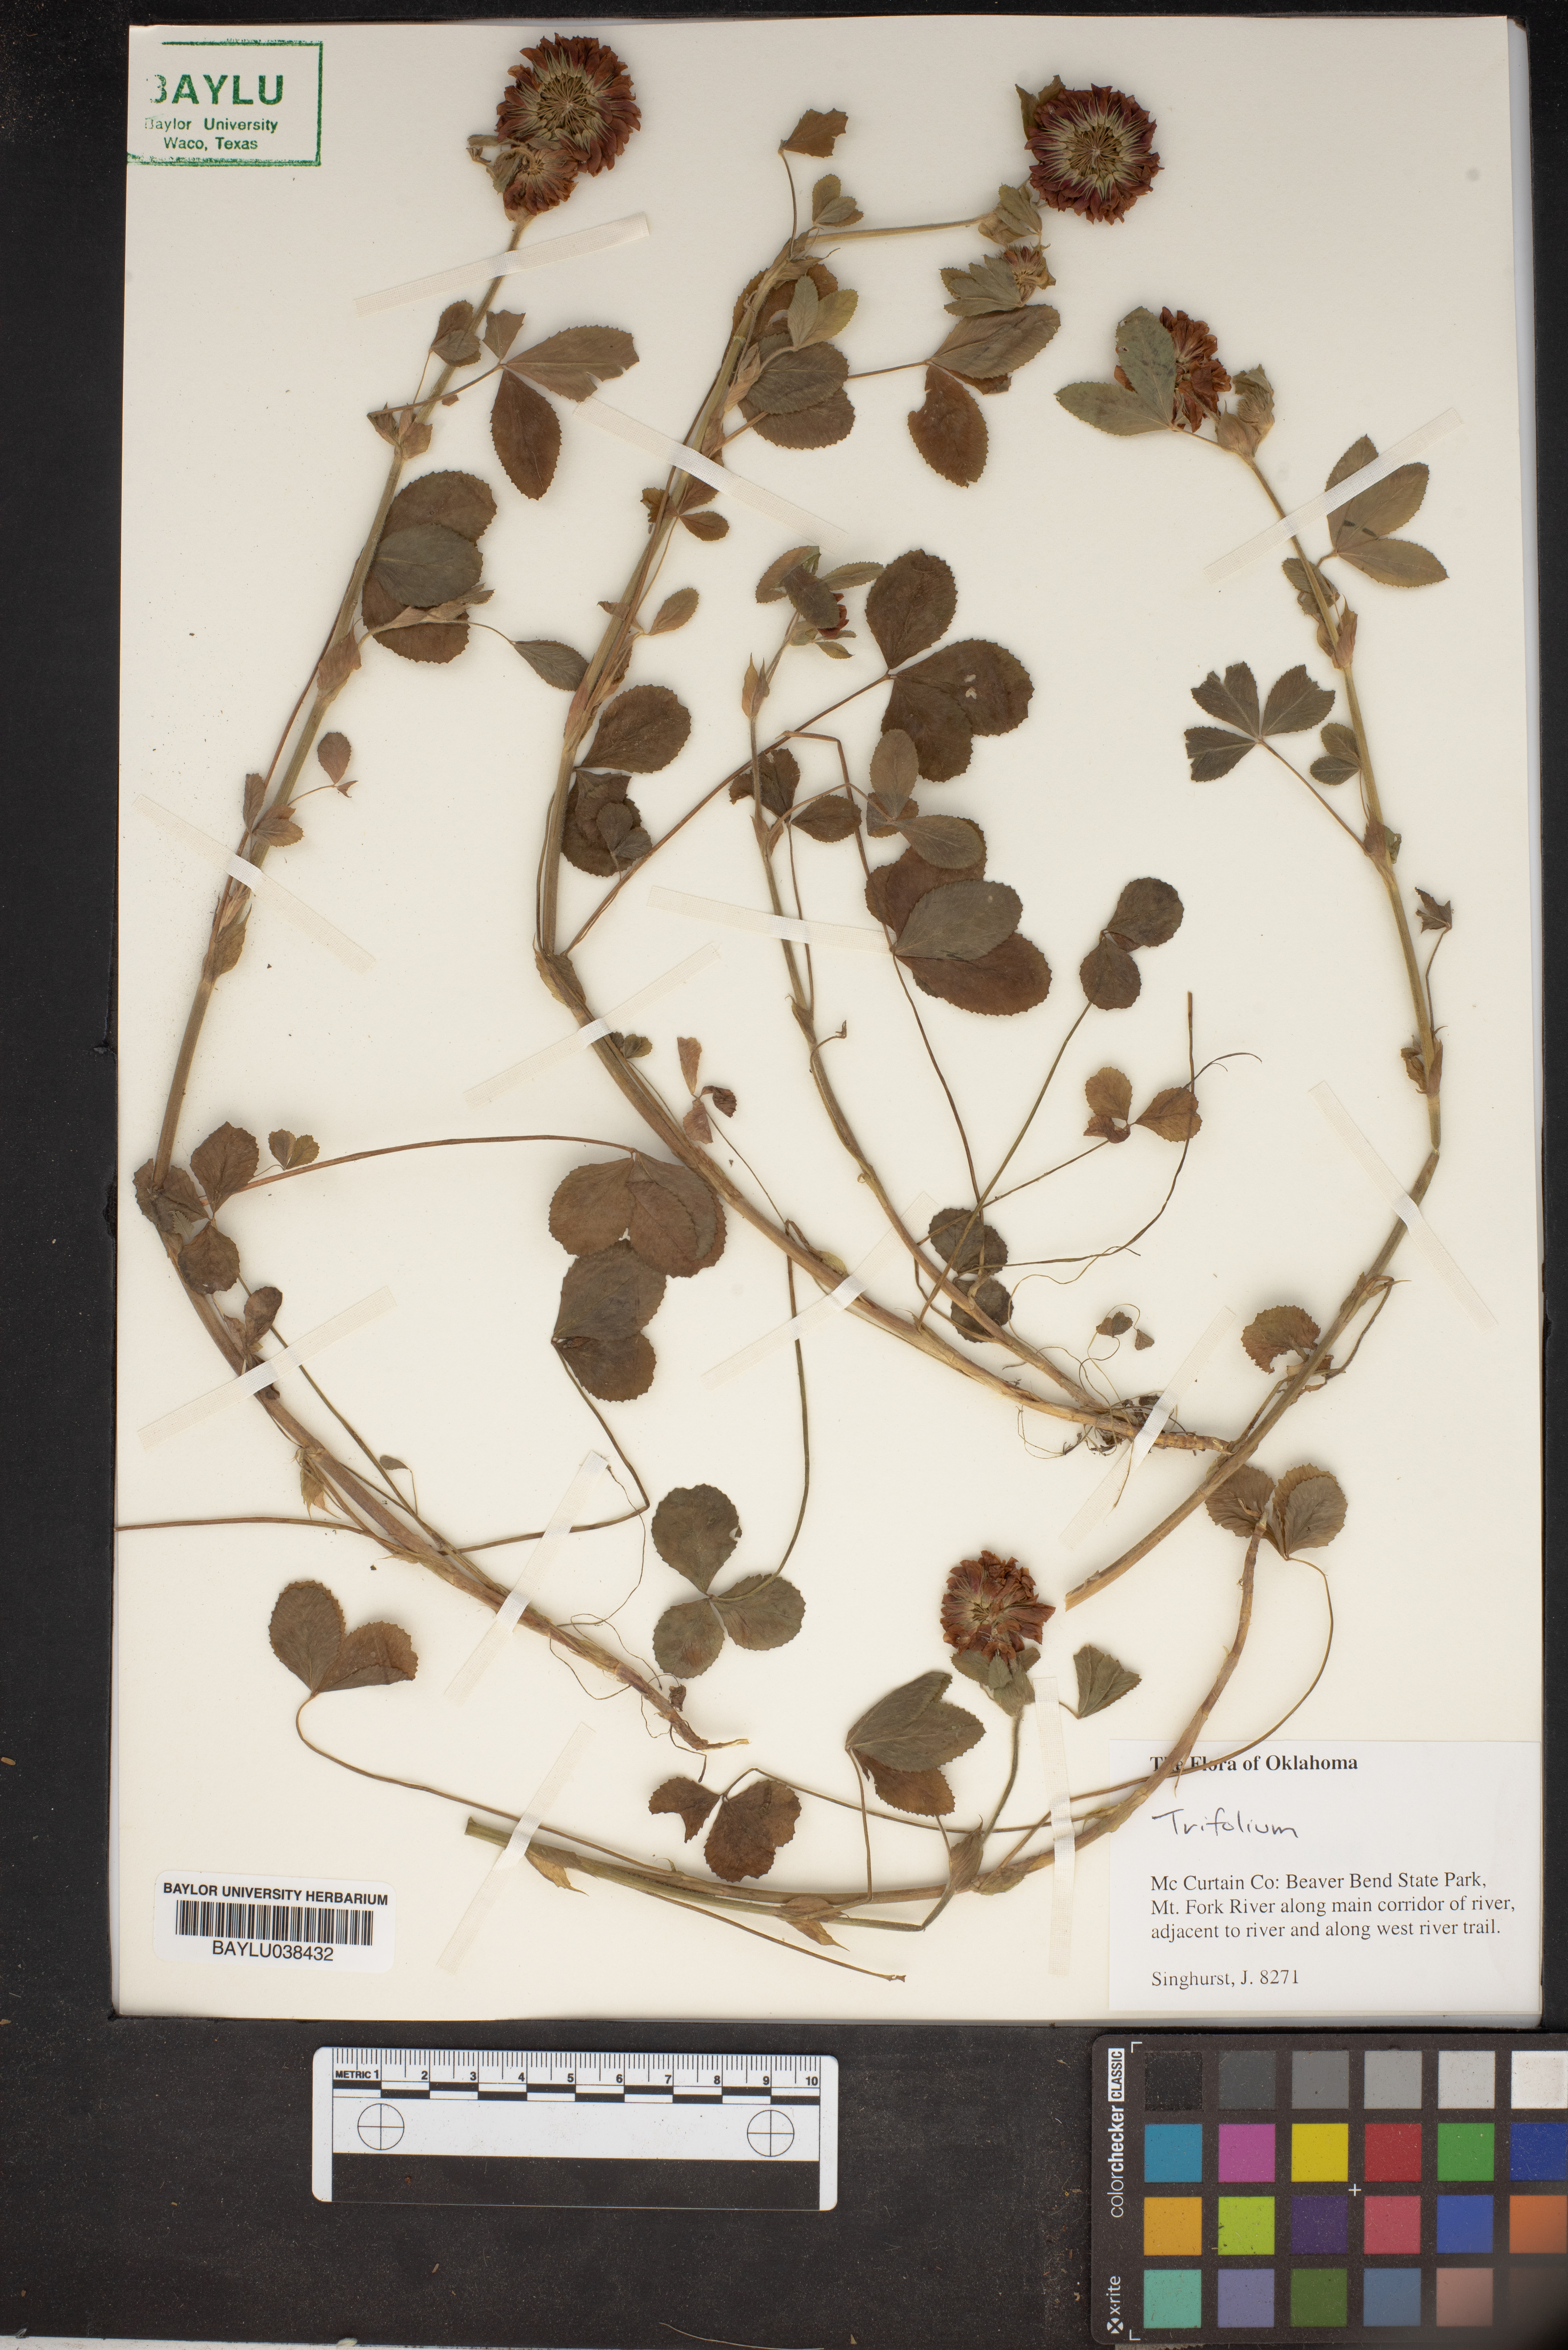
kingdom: Plantae
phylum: Tracheophyta
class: Magnoliopsida
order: Fabales
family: Fabaceae
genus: Trifolium
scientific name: Trifolium
